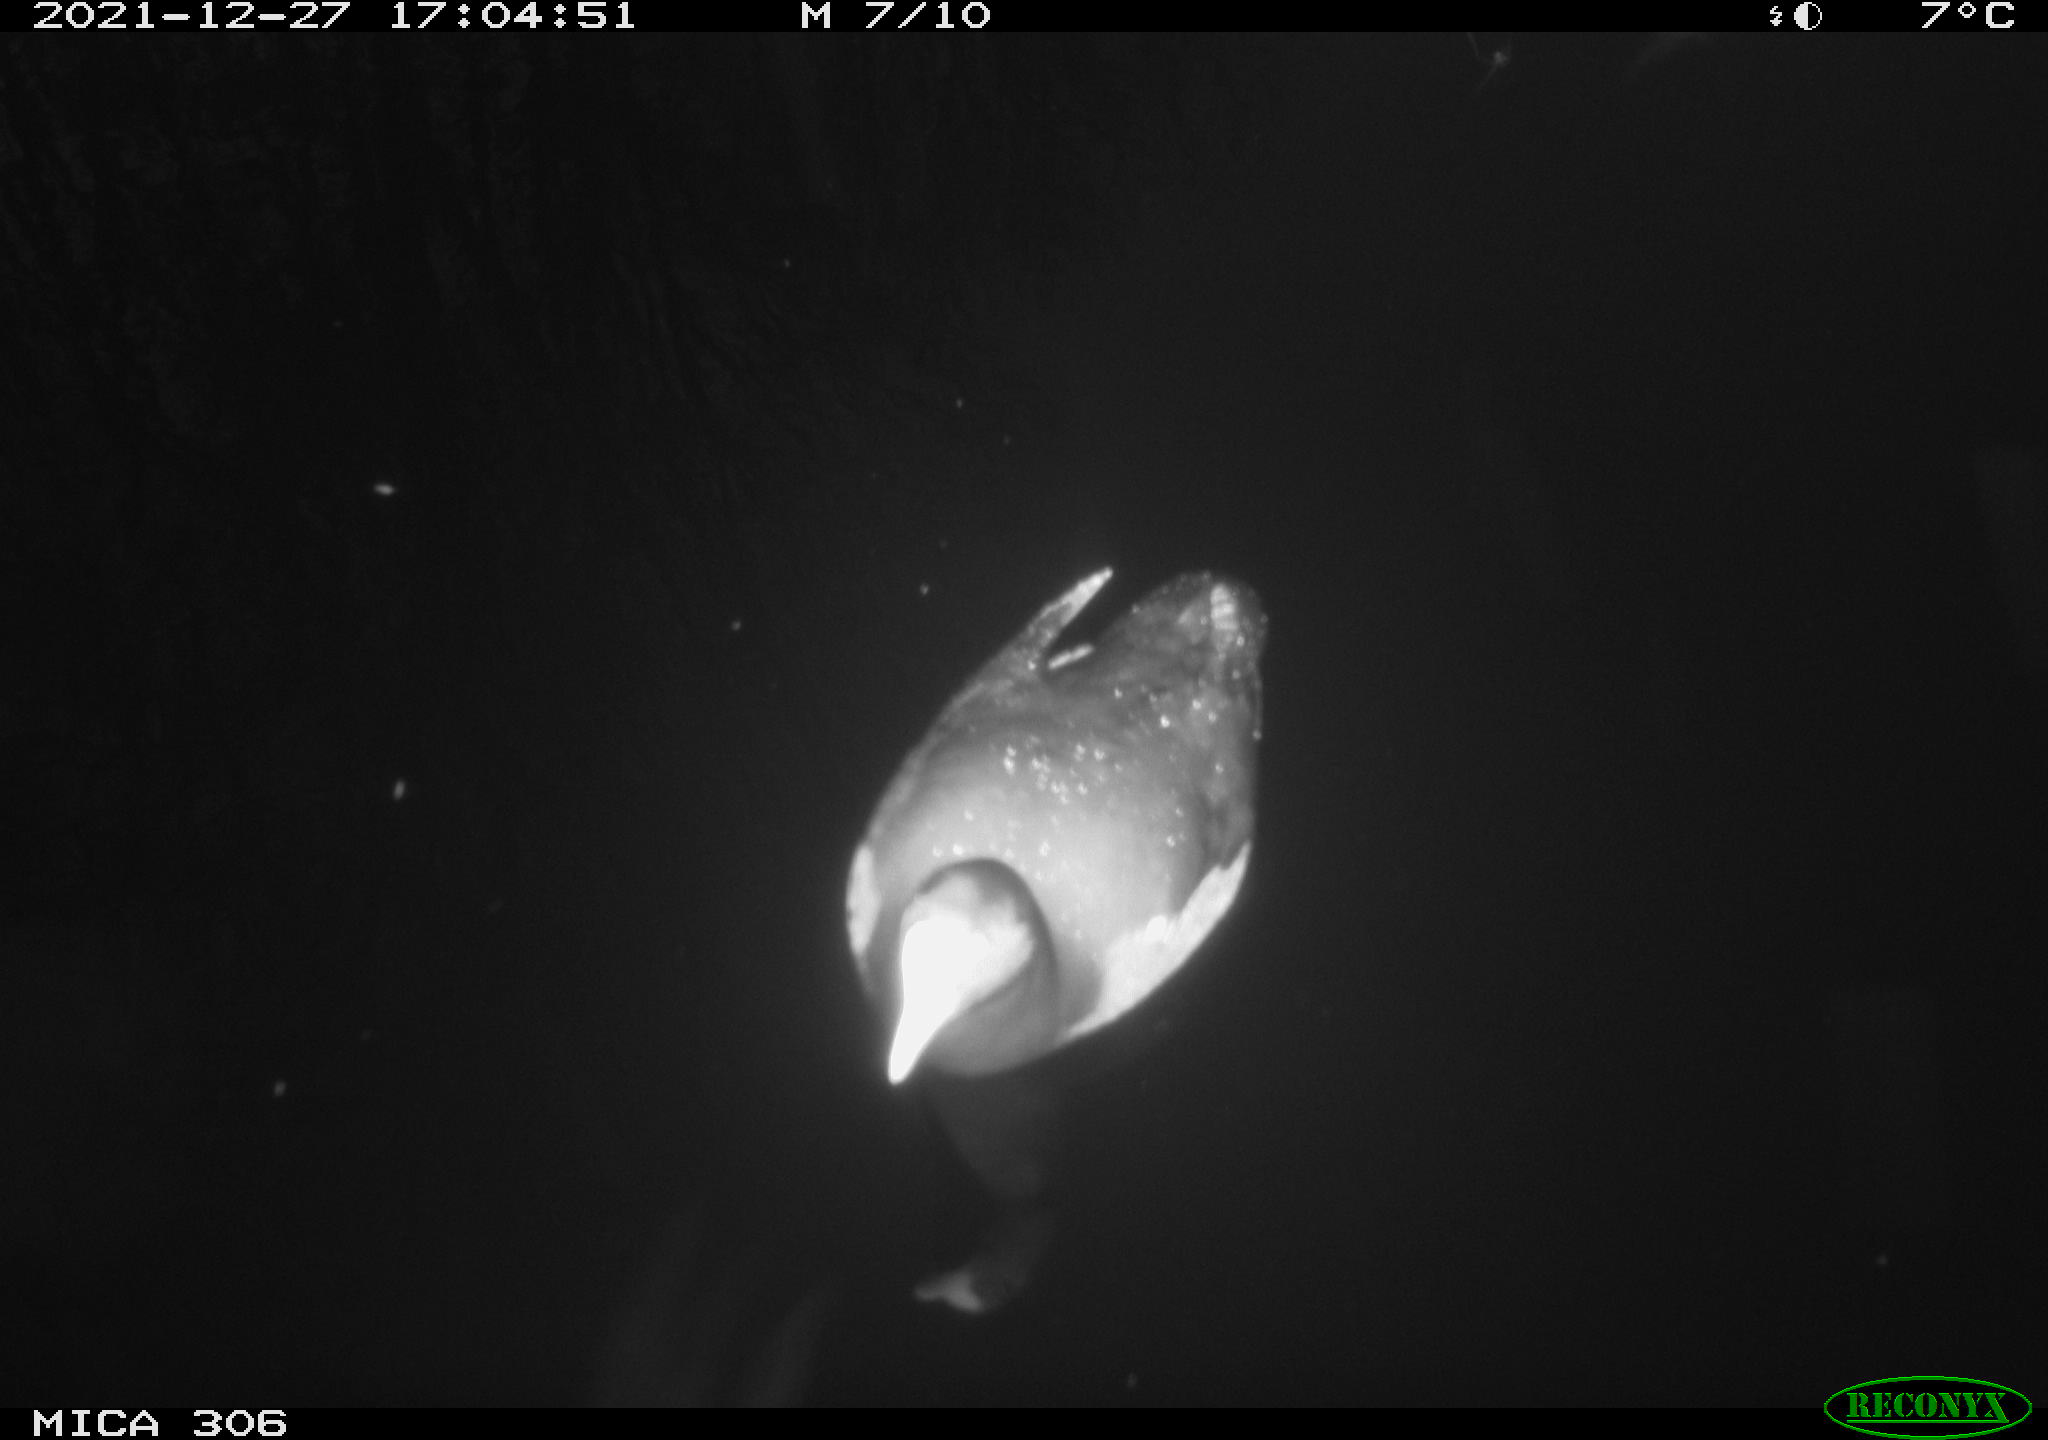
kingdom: Animalia
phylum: Chordata
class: Aves
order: Gruiformes
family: Rallidae
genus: Fulica
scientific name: Fulica atra
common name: Eurasian coot
